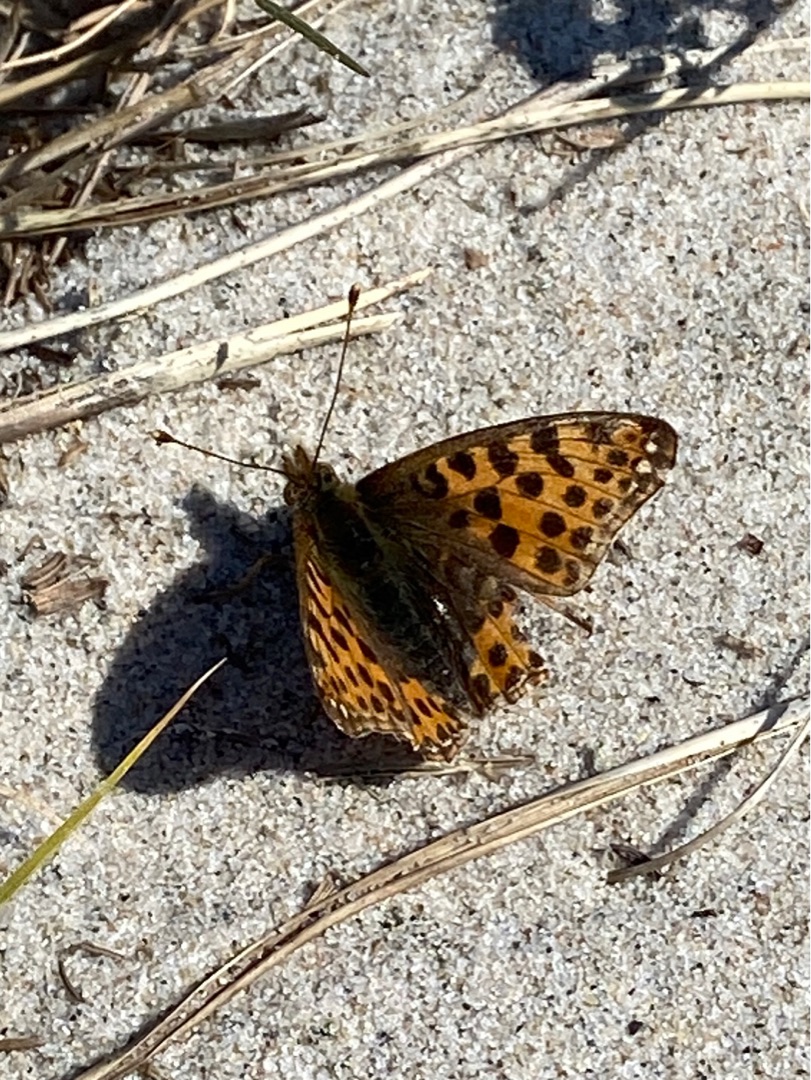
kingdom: Animalia
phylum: Arthropoda
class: Insecta
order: Lepidoptera
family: Nymphalidae
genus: Issoria
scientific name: Issoria lathonia
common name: Storplettet perlemorsommerfugl
